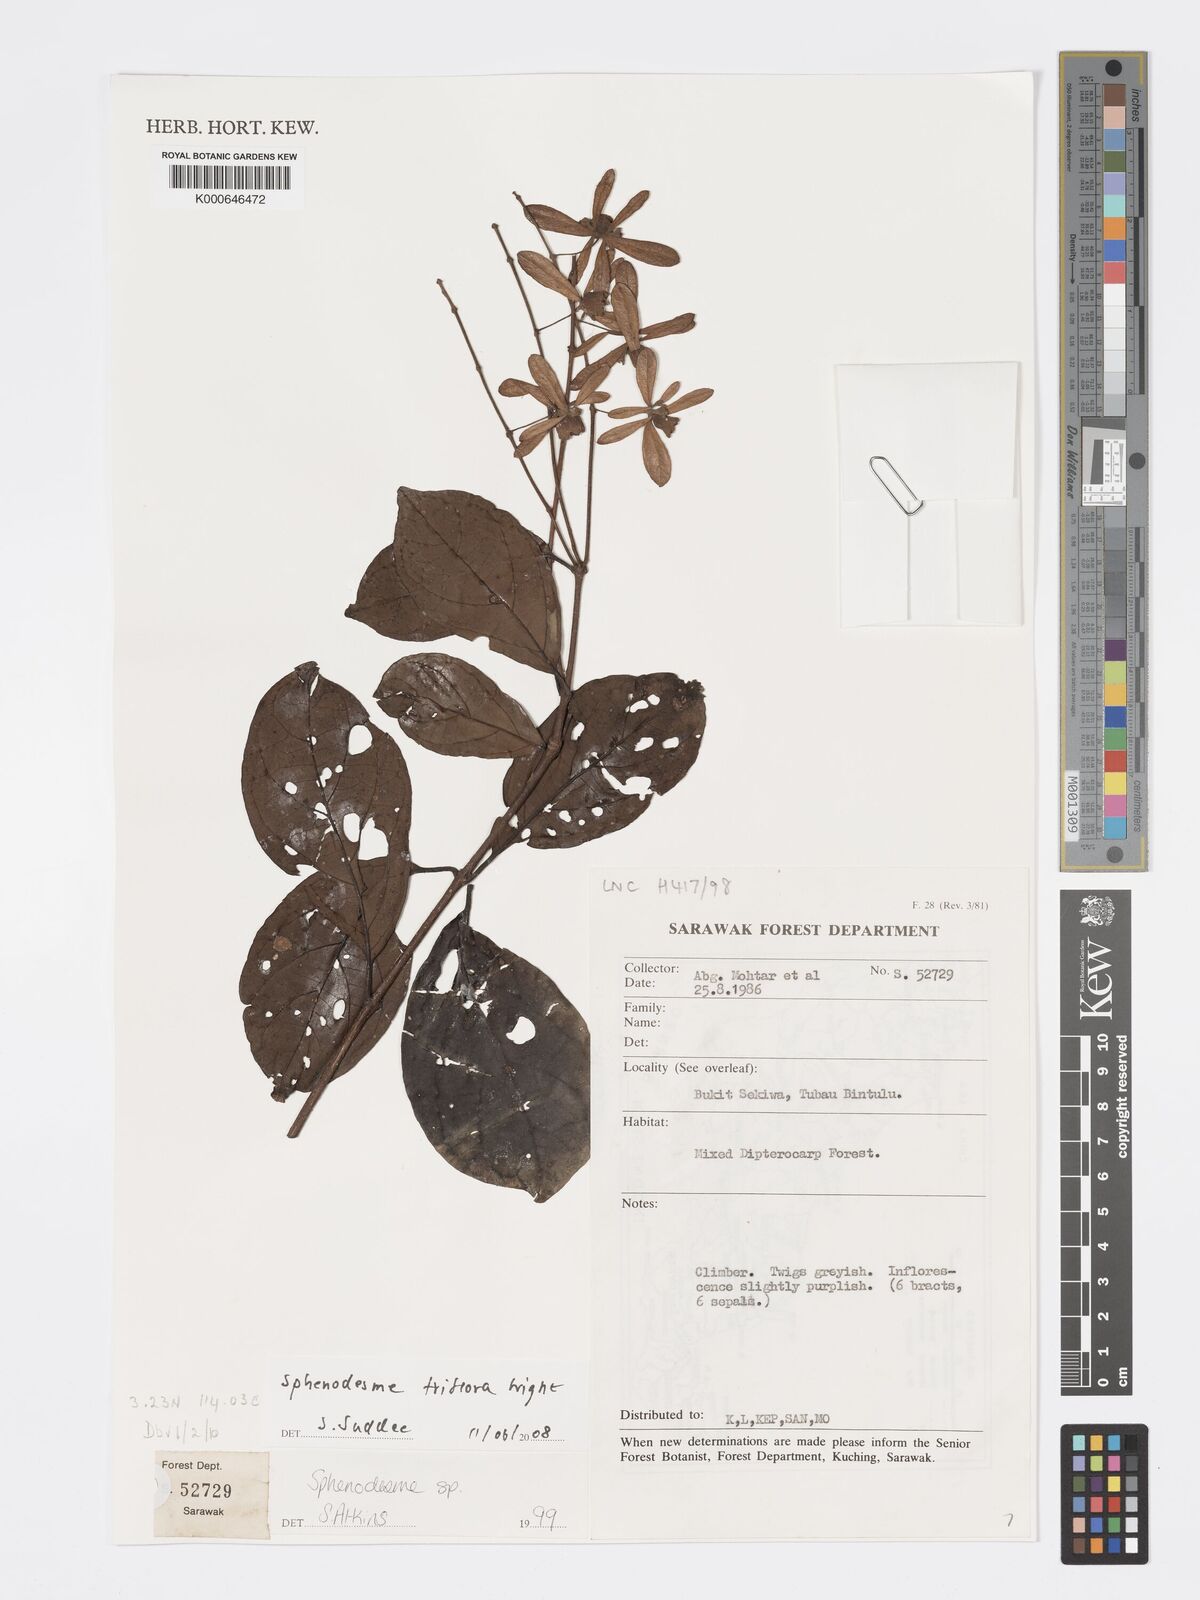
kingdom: Plantae
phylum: Tracheophyta
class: Magnoliopsida
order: Lamiales
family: Lamiaceae
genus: Sphenodesme
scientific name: Sphenodesme triflora
